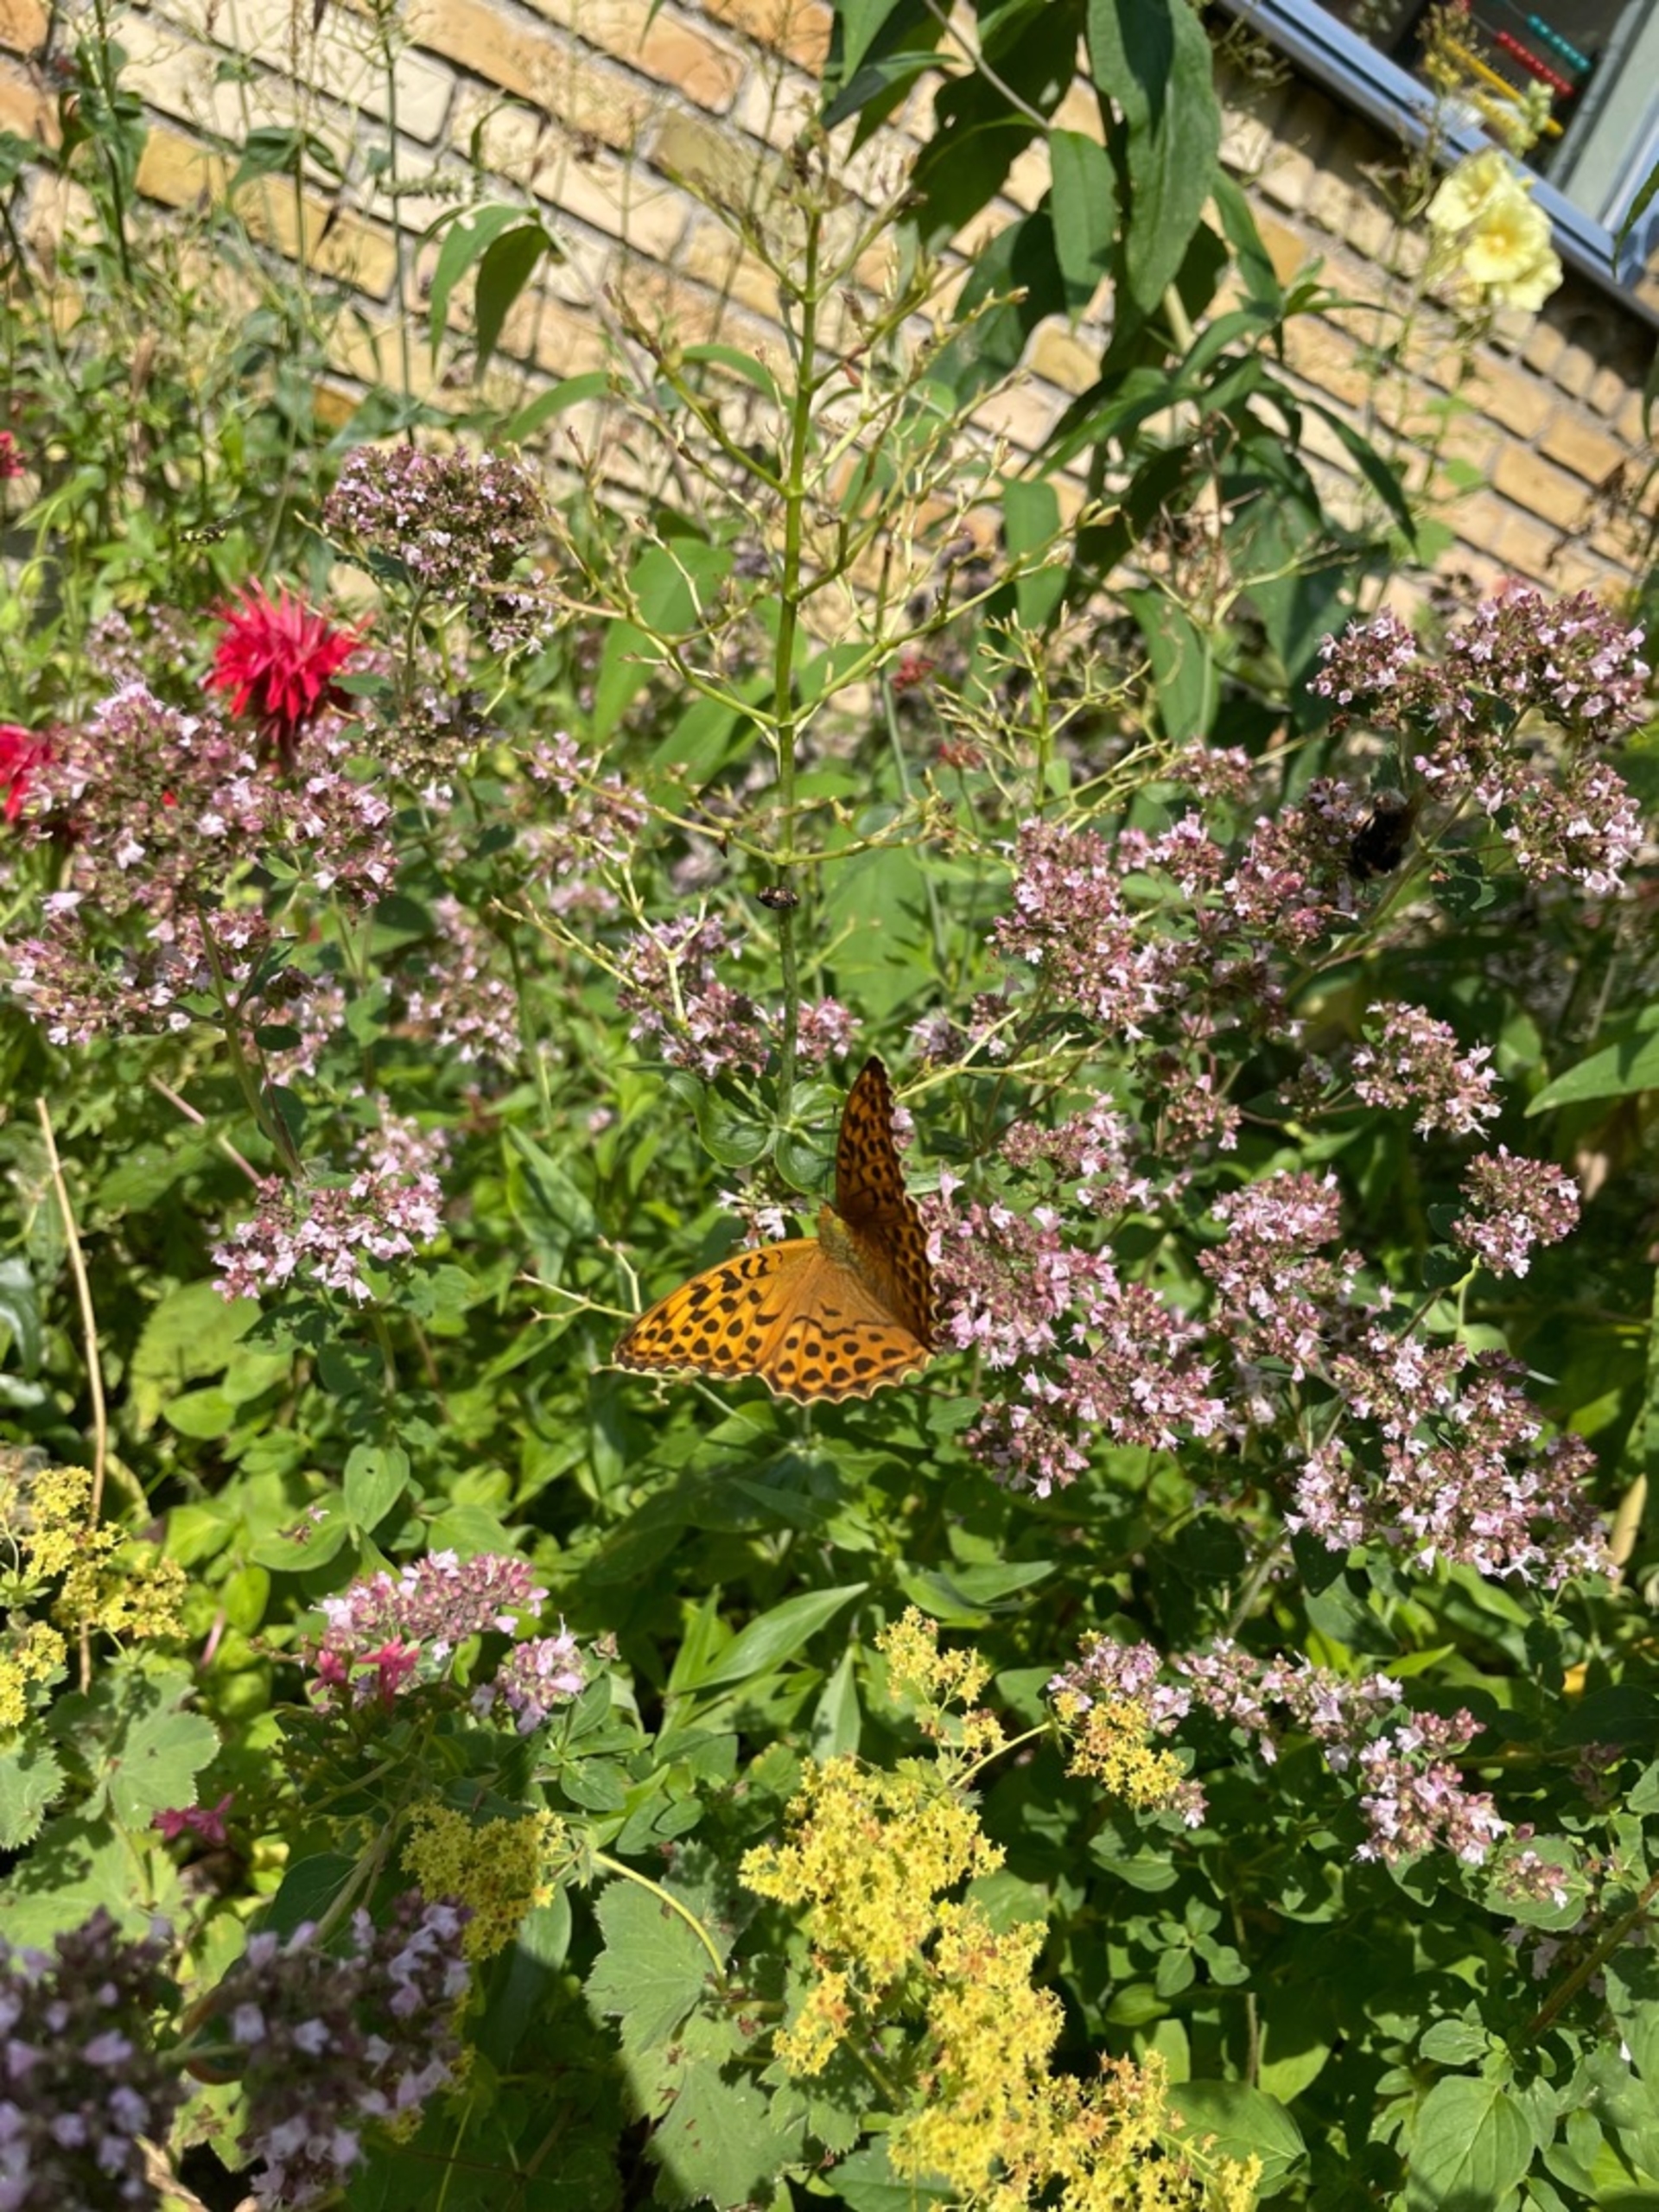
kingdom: Animalia
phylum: Arthropoda
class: Insecta
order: Lepidoptera
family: Nymphalidae
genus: Argynnis
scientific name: Argynnis paphia
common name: Kejserkåbe
